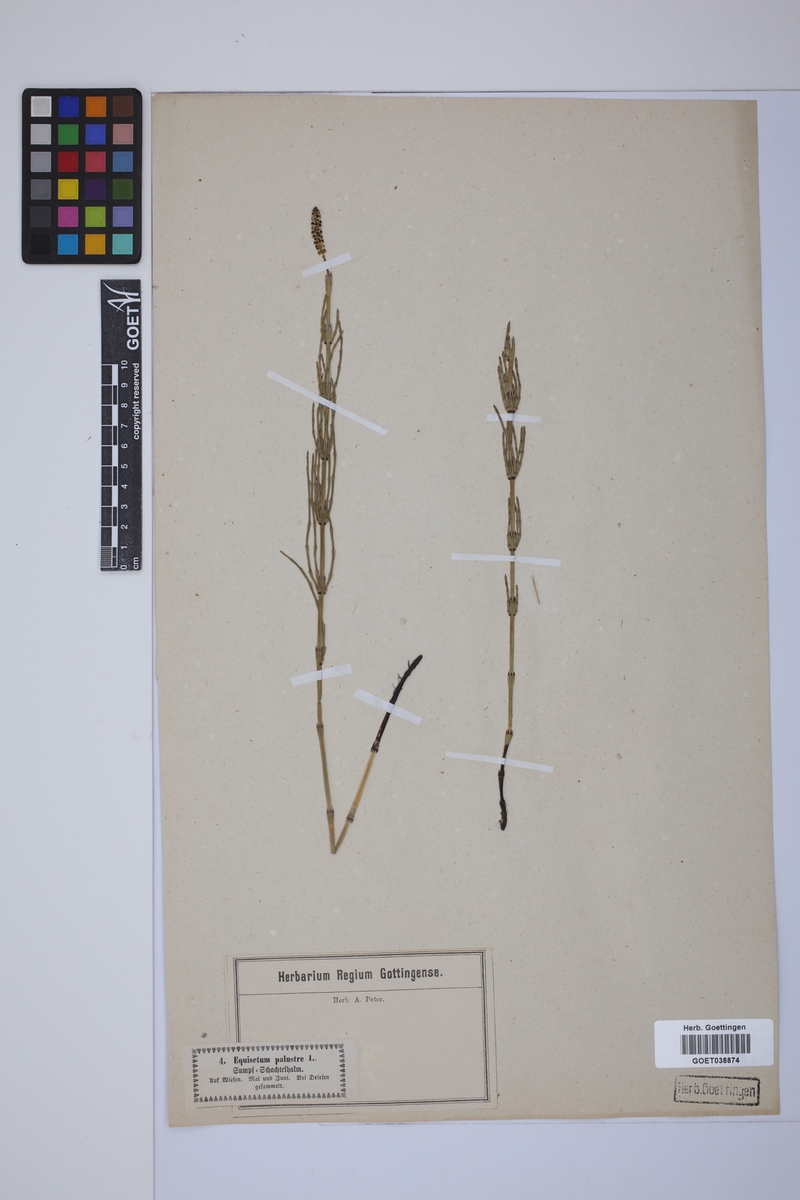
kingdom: Plantae
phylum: Tracheophyta
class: Polypodiopsida
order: Equisetales
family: Equisetaceae
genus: Equisetum
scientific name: Equisetum palustre
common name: Marsh horsetail
